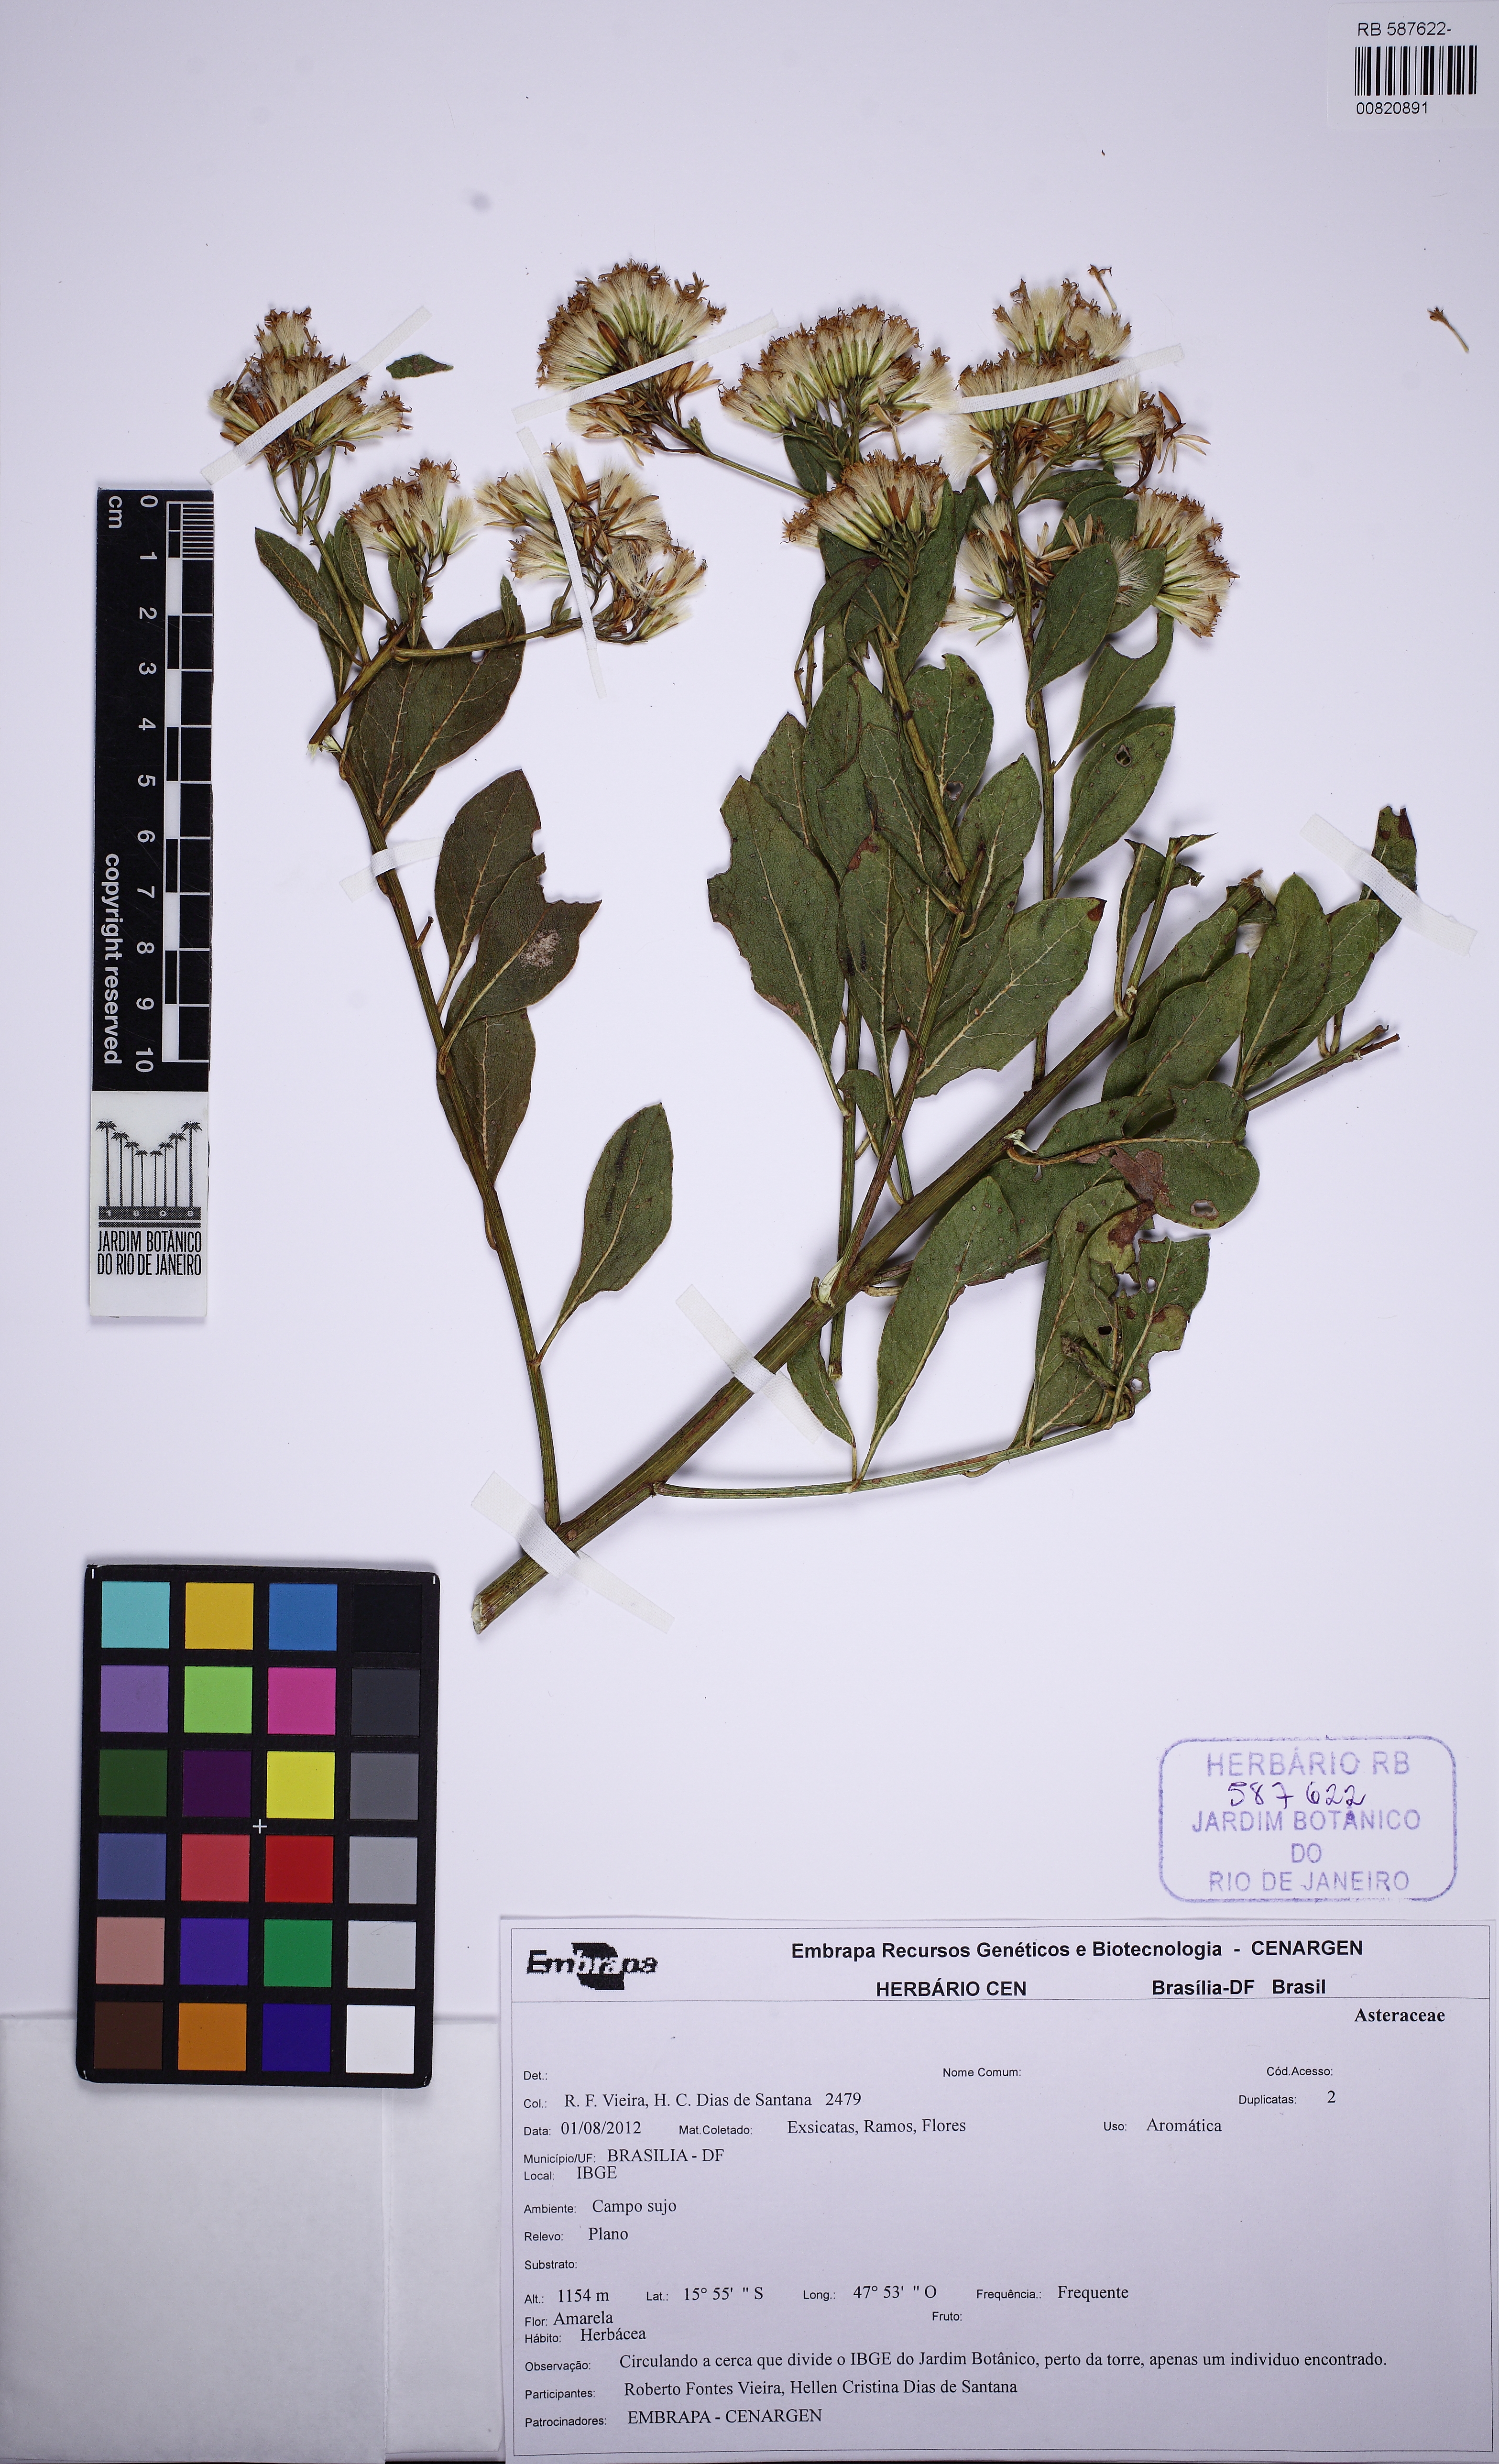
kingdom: Plantae
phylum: Tracheophyta
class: Magnoliopsida
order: Asterales
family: Asteraceae
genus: Hoehnephytum
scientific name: Hoehnephytum trixoides
